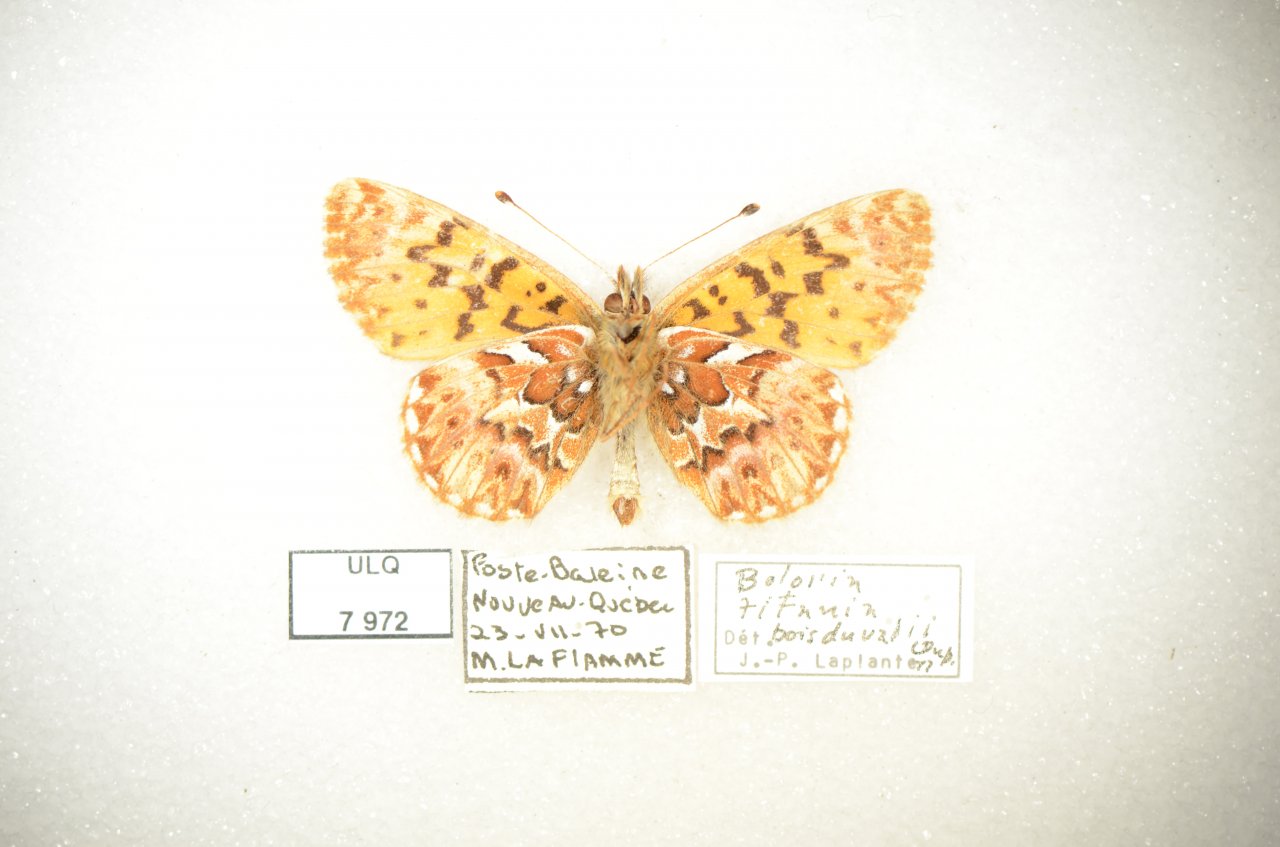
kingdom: Animalia
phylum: Arthropoda
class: Insecta
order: Lepidoptera
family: Nymphalidae
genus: Boloria
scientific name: Boloria chariclea
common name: Arctic Fritillary
